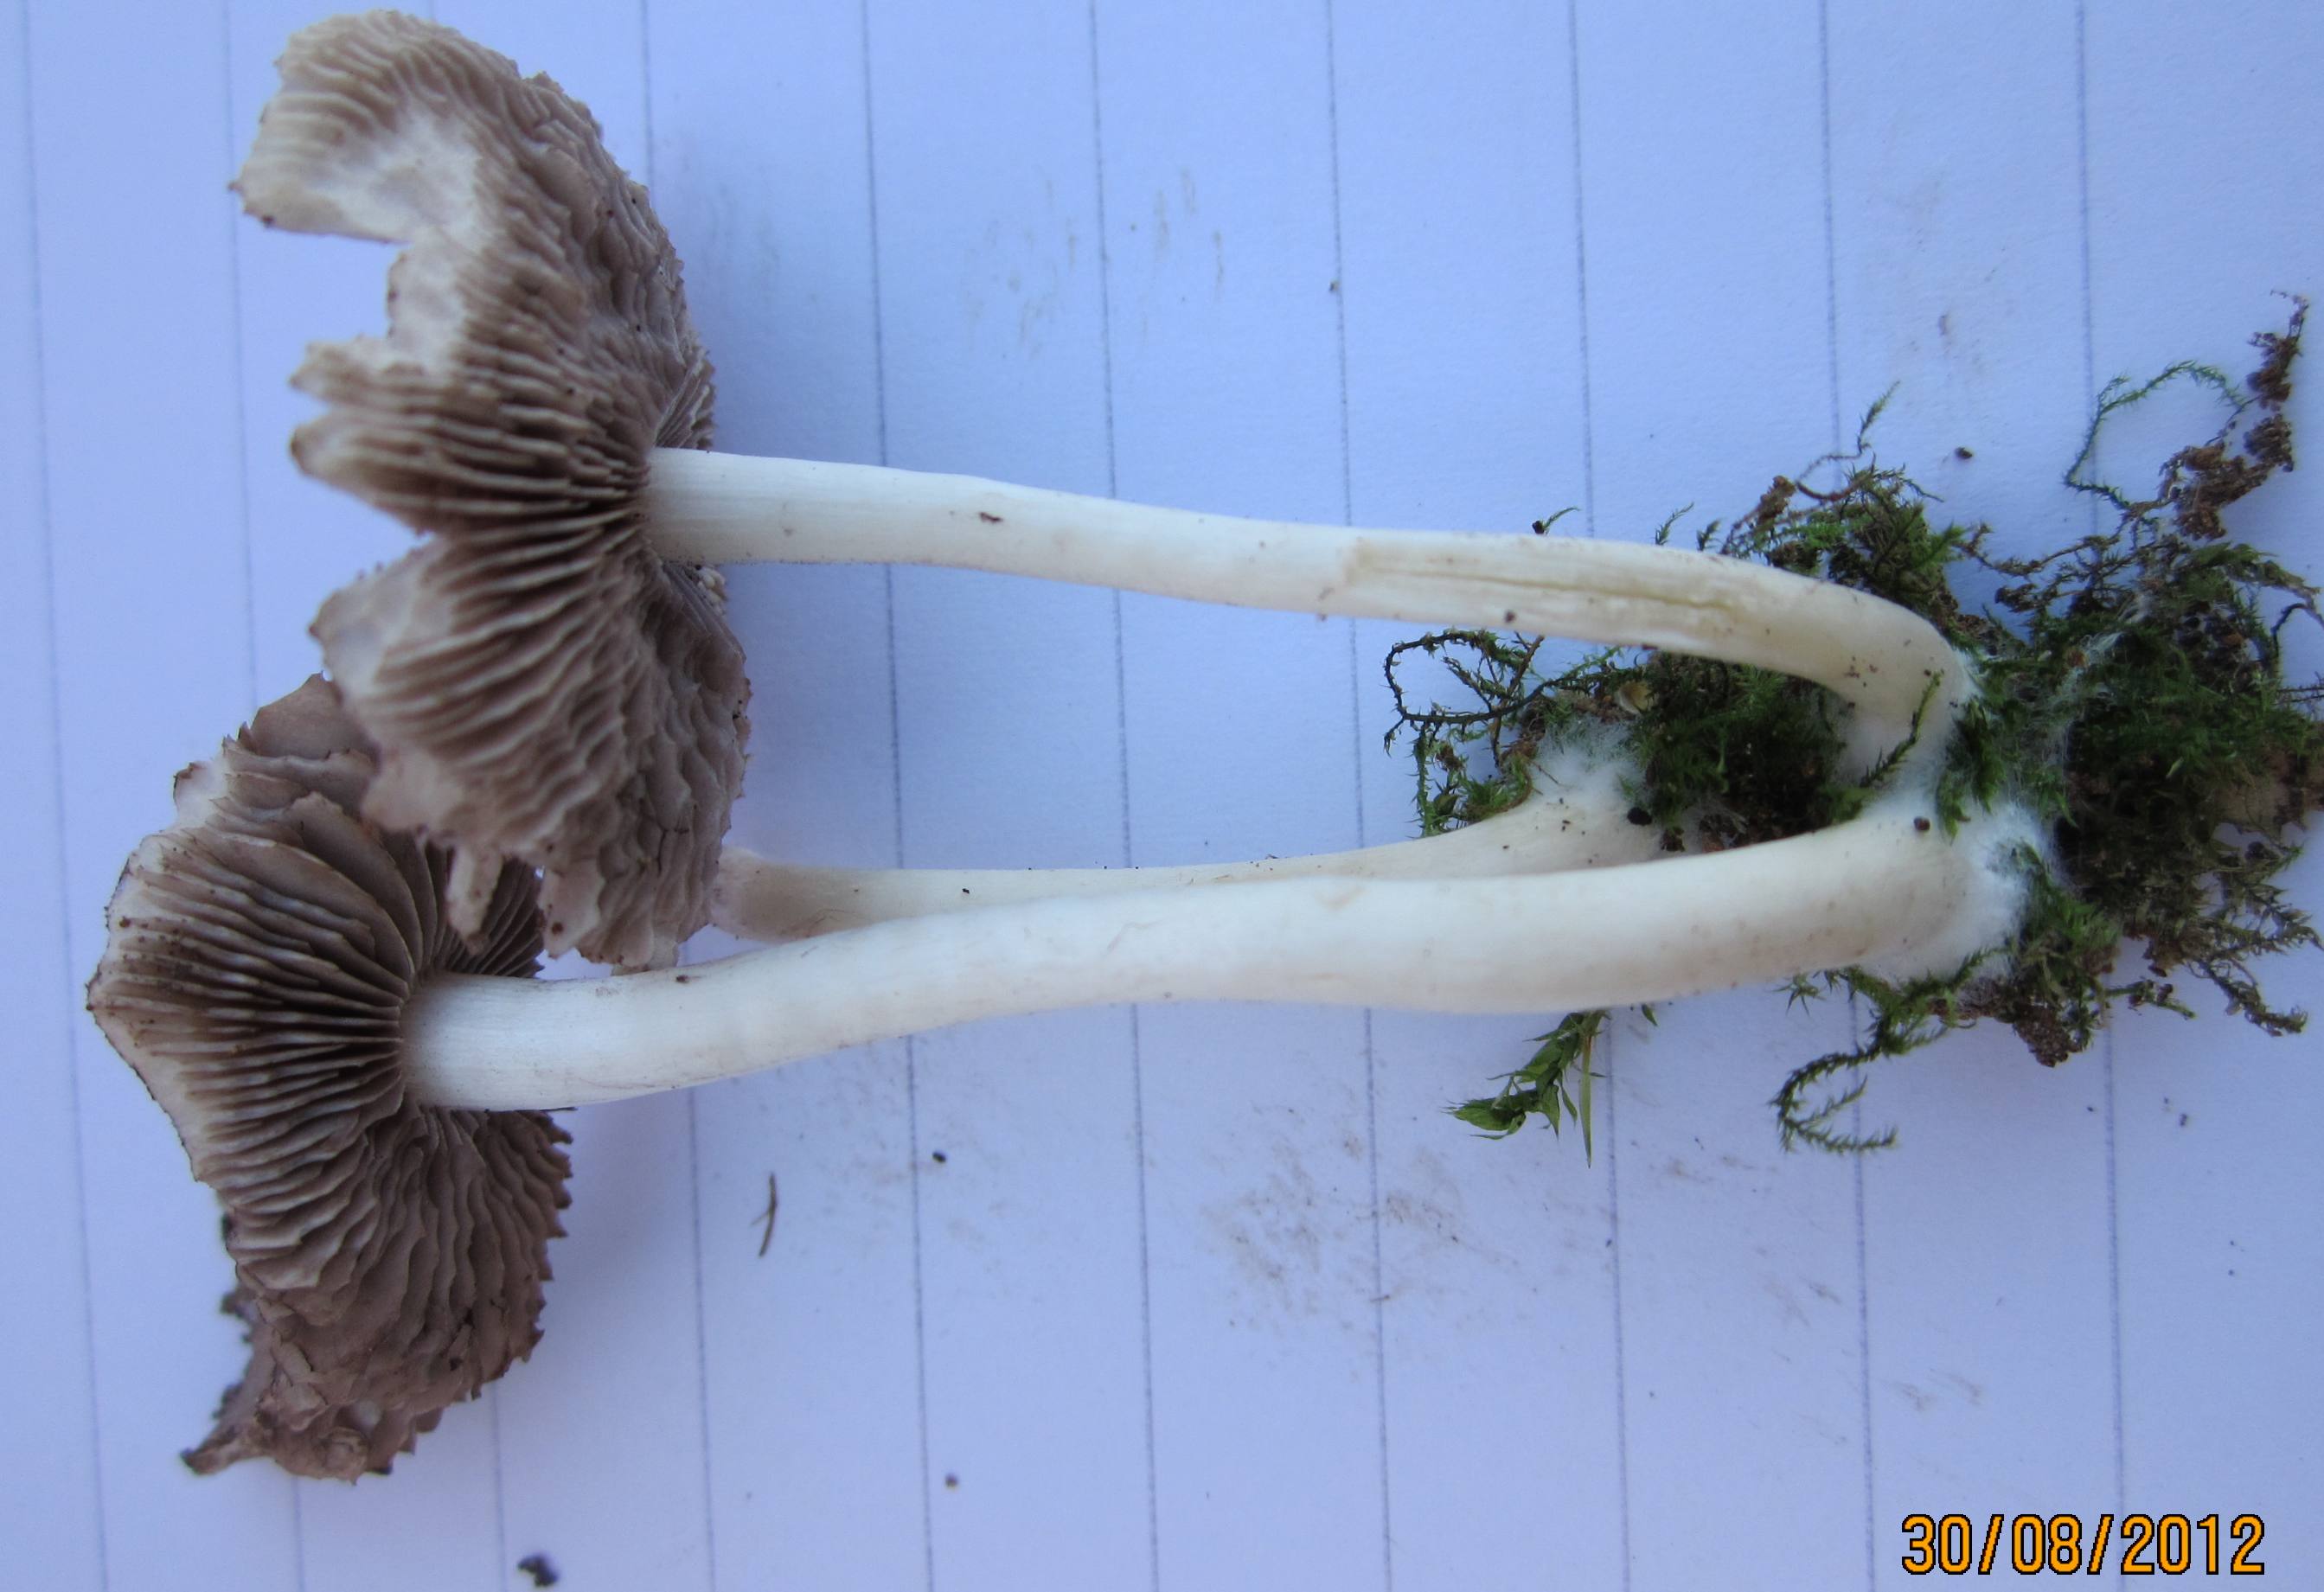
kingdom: Fungi
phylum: Basidiomycota
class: Agaricomycetes
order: Agaricales
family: Psathyrellaceae
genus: Candolleomyces
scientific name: Candolleomyces candolleanus
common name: Candolles mørkhat
